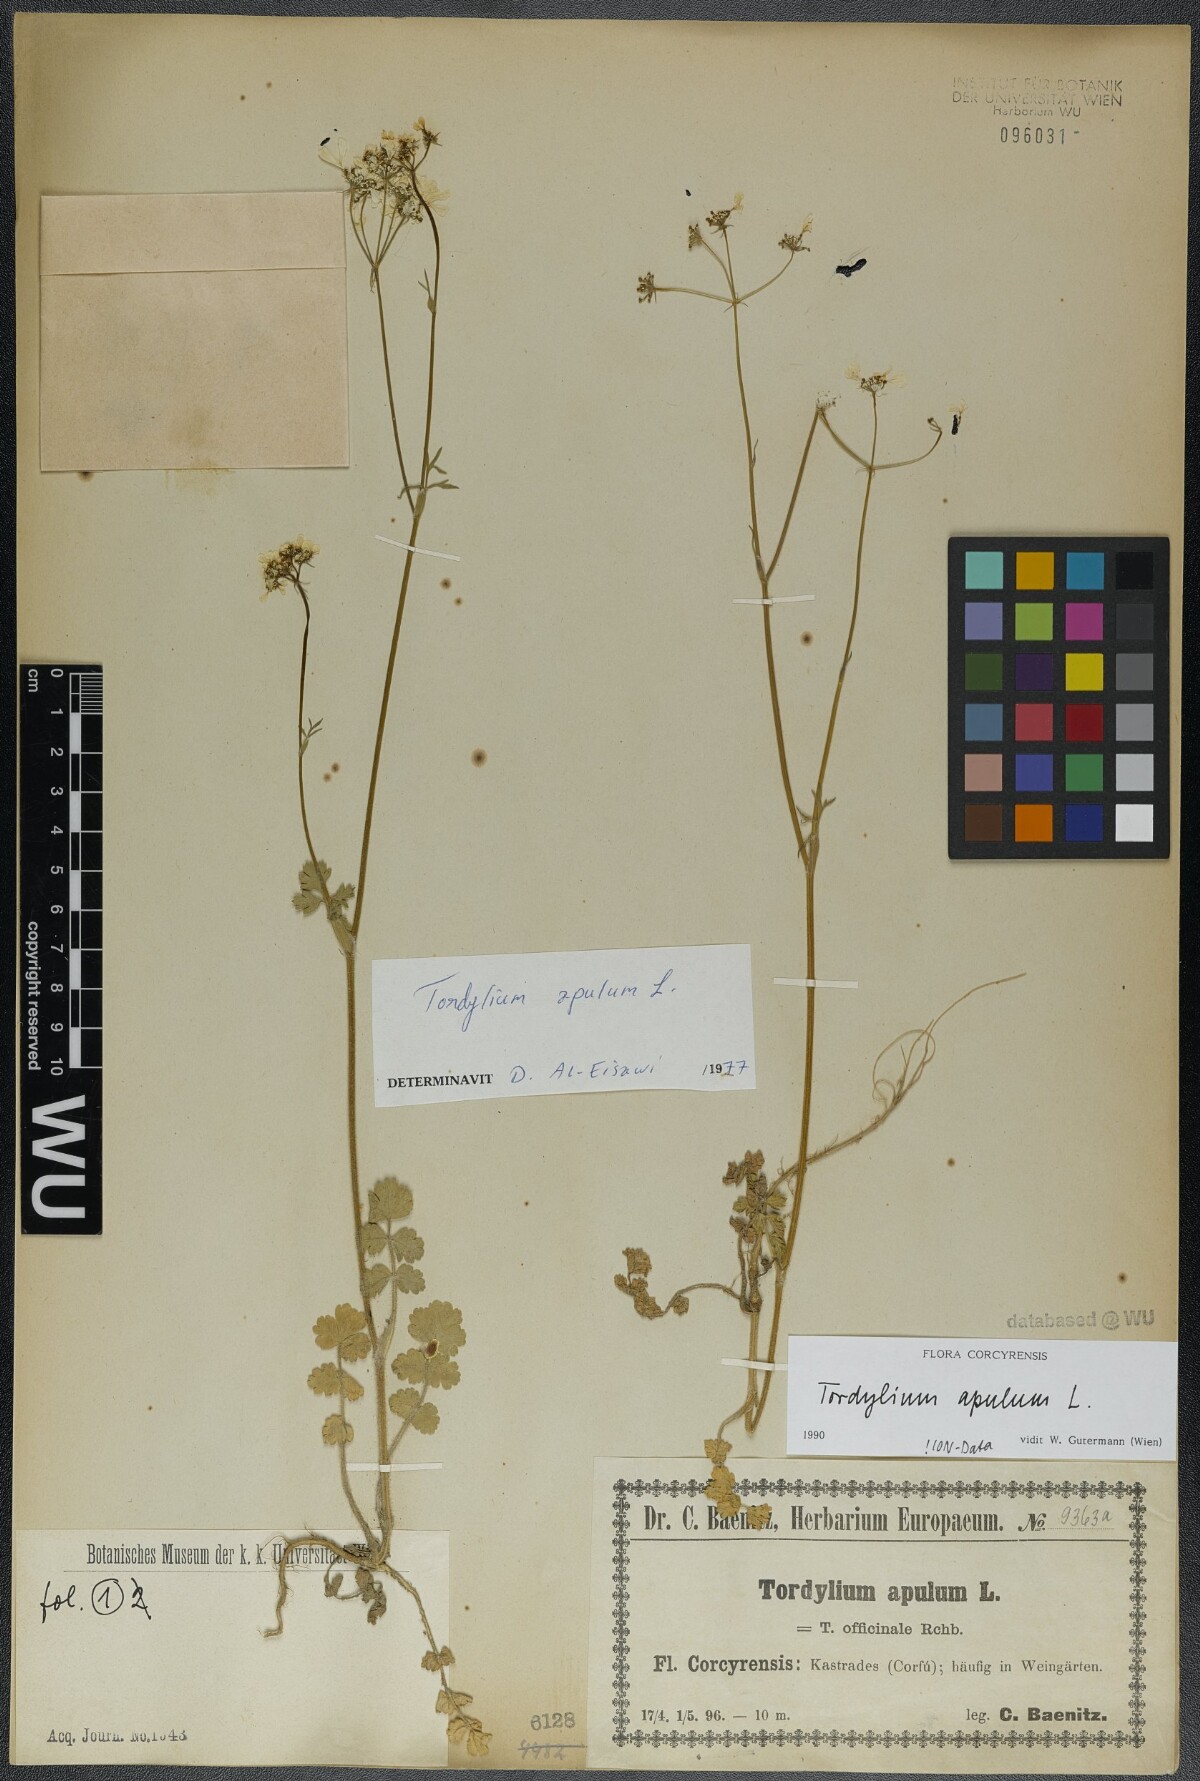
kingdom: Plantae
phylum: Tracheophyta
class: Magnoliopsida
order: Apiales
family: Apiaceae
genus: Tordylium
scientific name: Tordylium apulum
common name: Mediterranean hartwort
